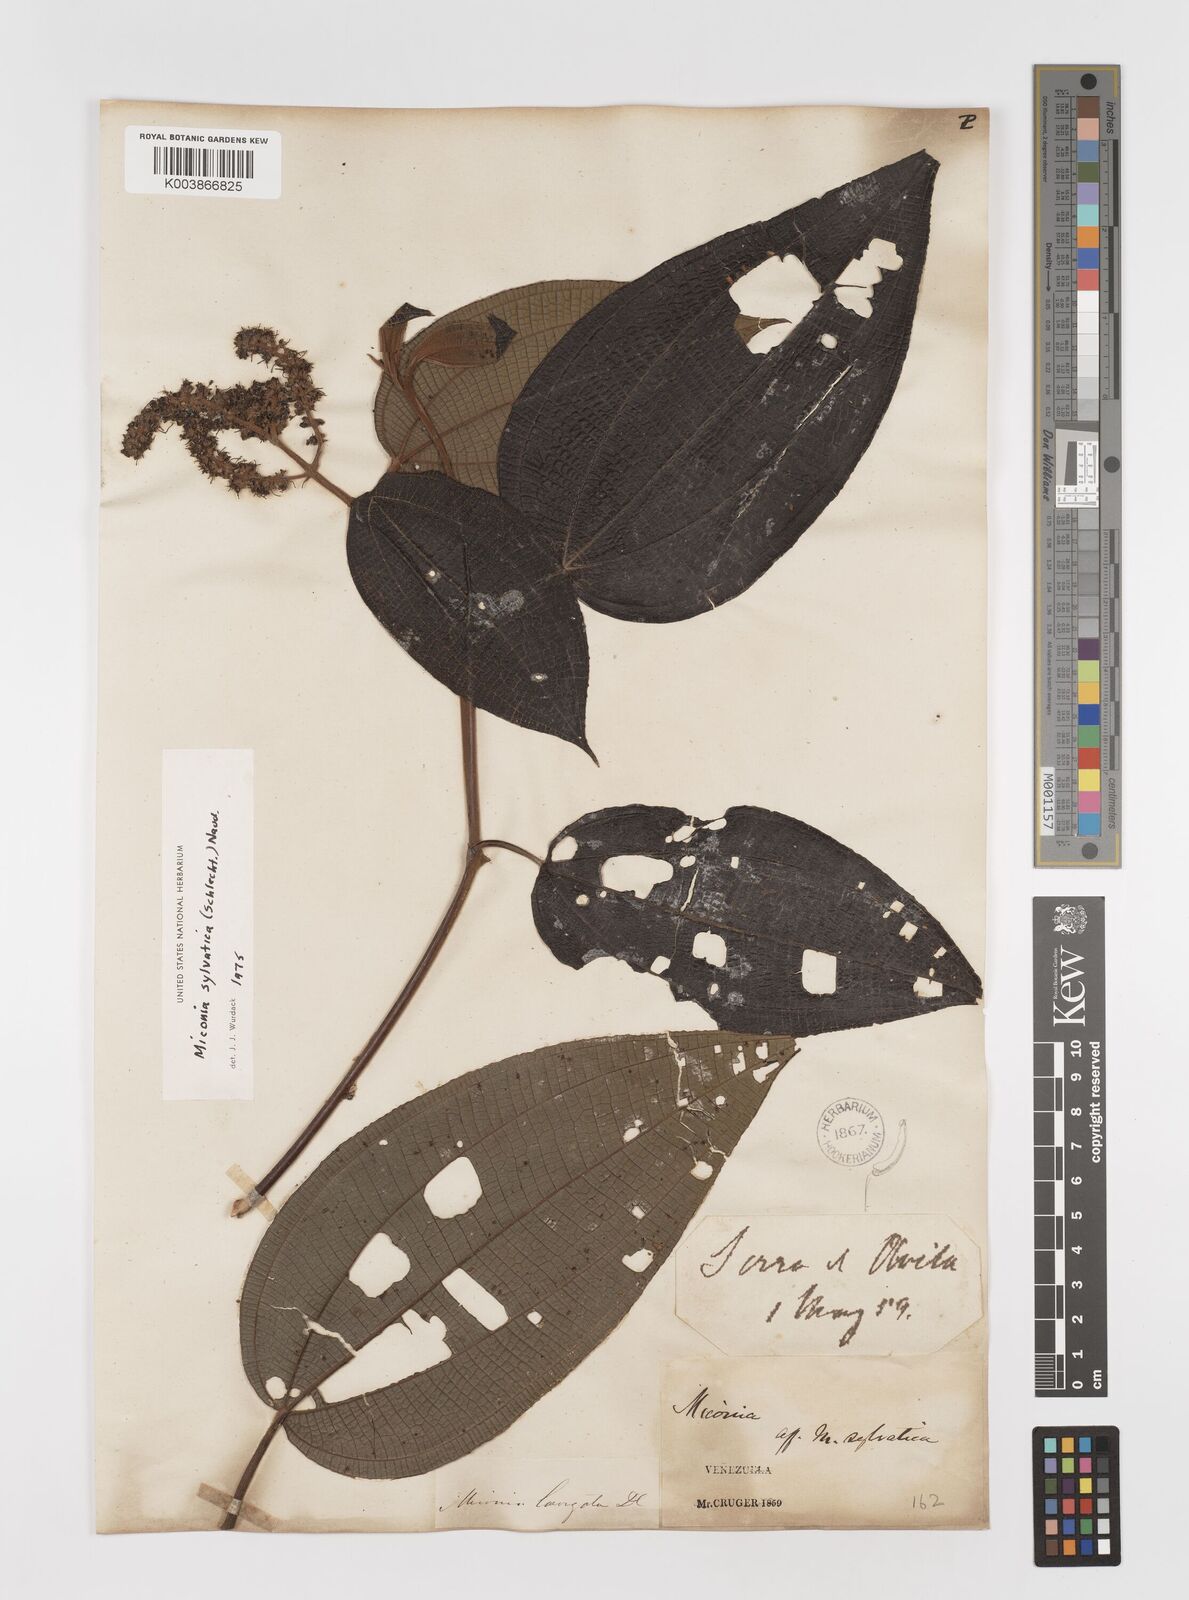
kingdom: Plantae
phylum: Tracheophyta
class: Magnoliopsida
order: Myrtales
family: Melastomataceae
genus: Miconia
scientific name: Miconia sylvatica
